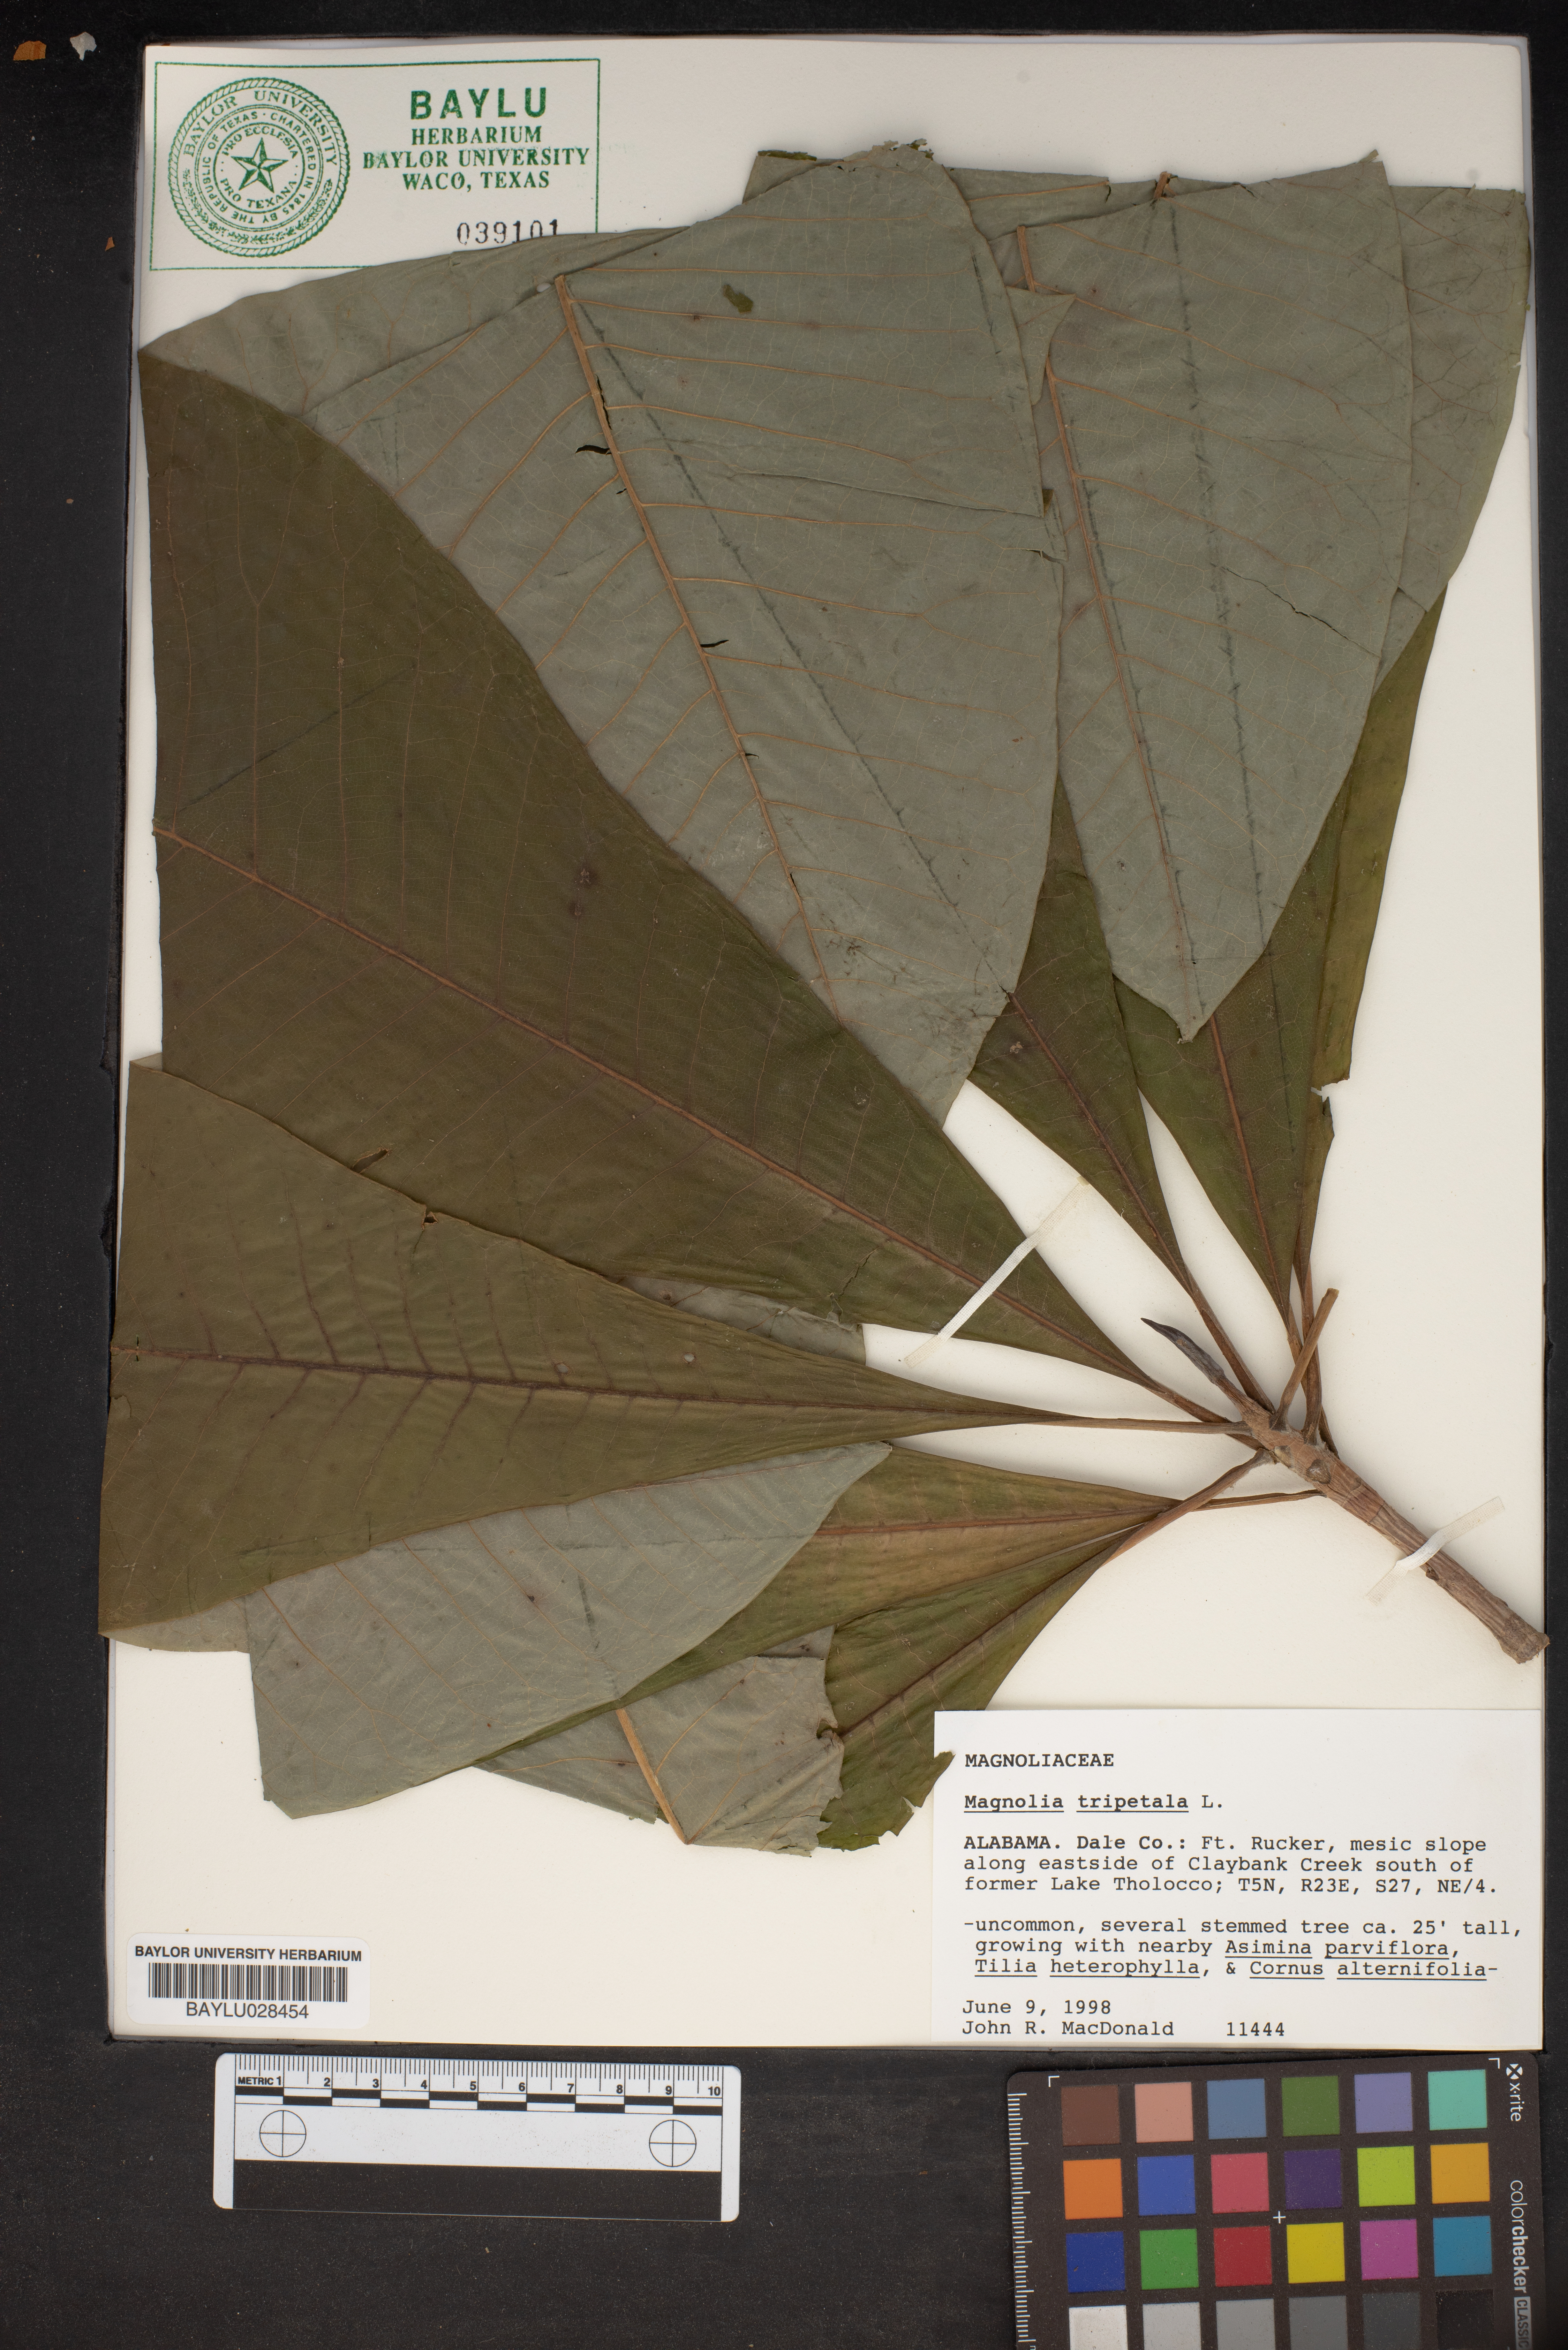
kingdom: Plantae
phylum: Tracheophyta
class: Magnoliopsida
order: Magnoliales
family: Magnoliaceae
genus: Magnolia
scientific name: Magnolia tripetala
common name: Umbrella magnolia
